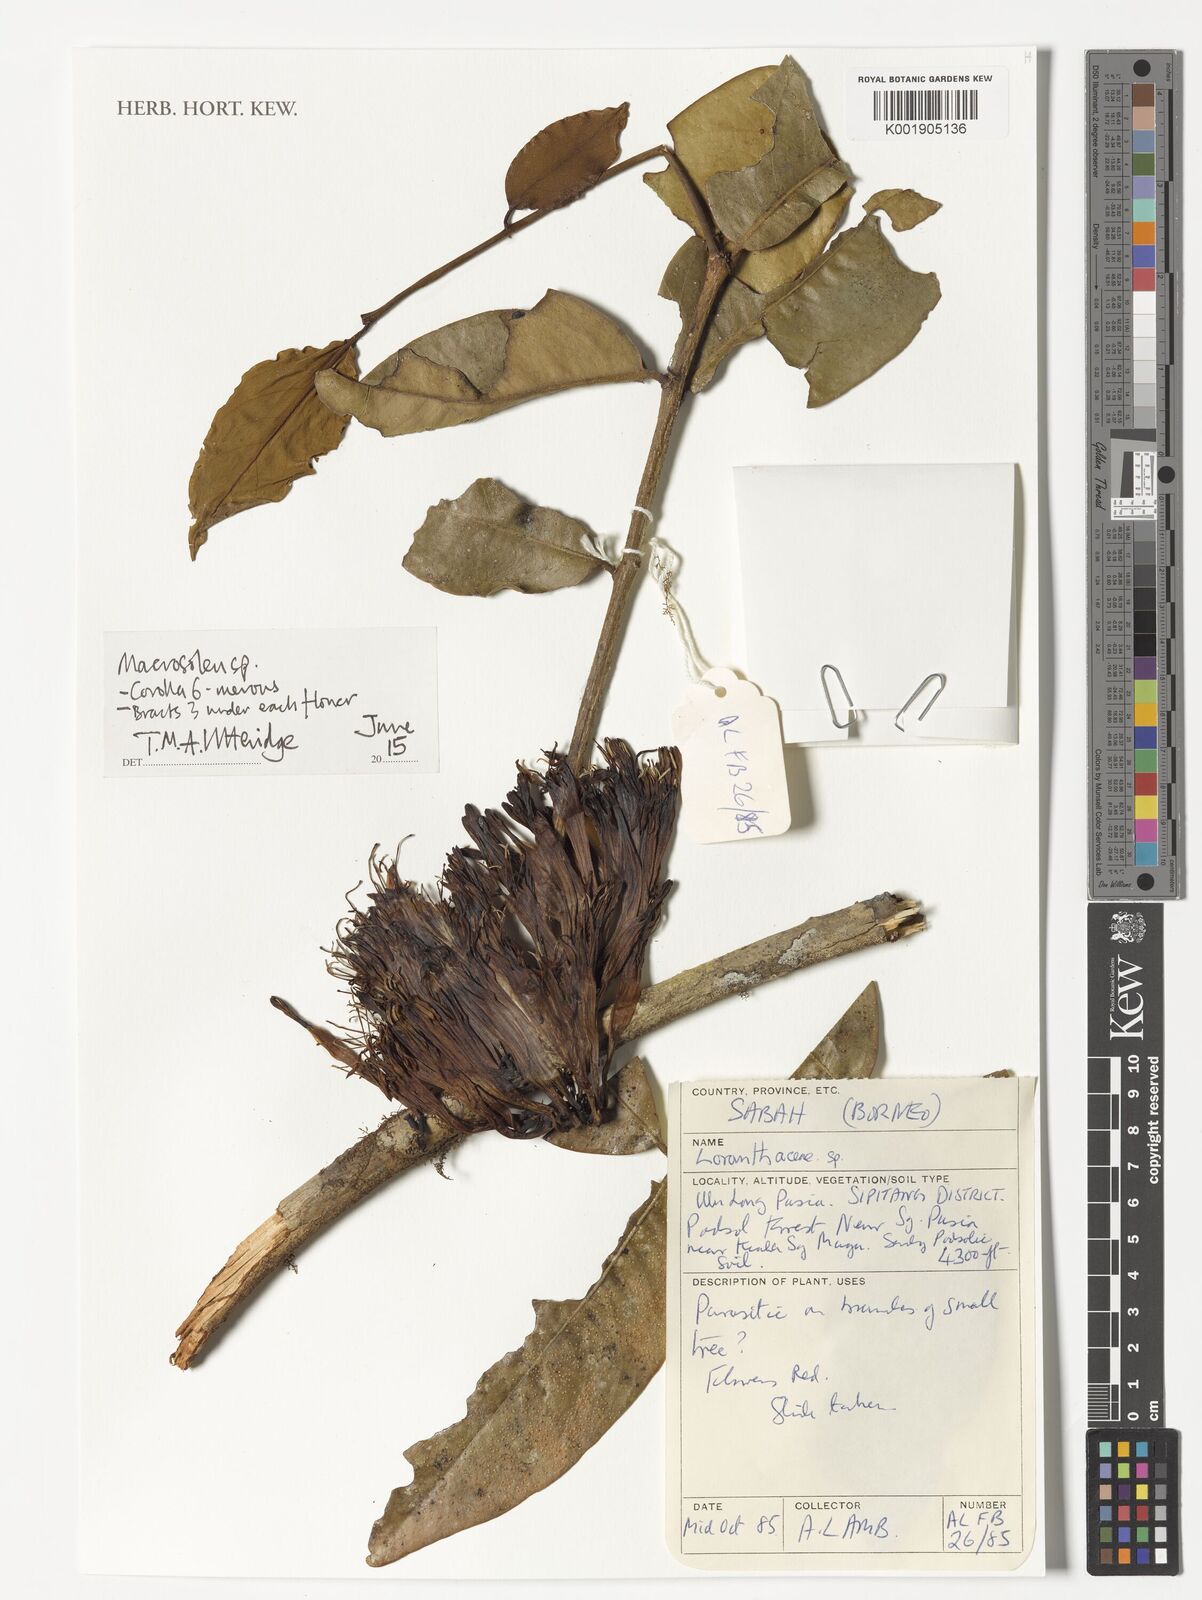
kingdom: Plantae
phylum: Tracheophyta
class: Magnoliopsida
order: Santalales
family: Loranthaceae
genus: Macrosolen
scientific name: Macrosolen
